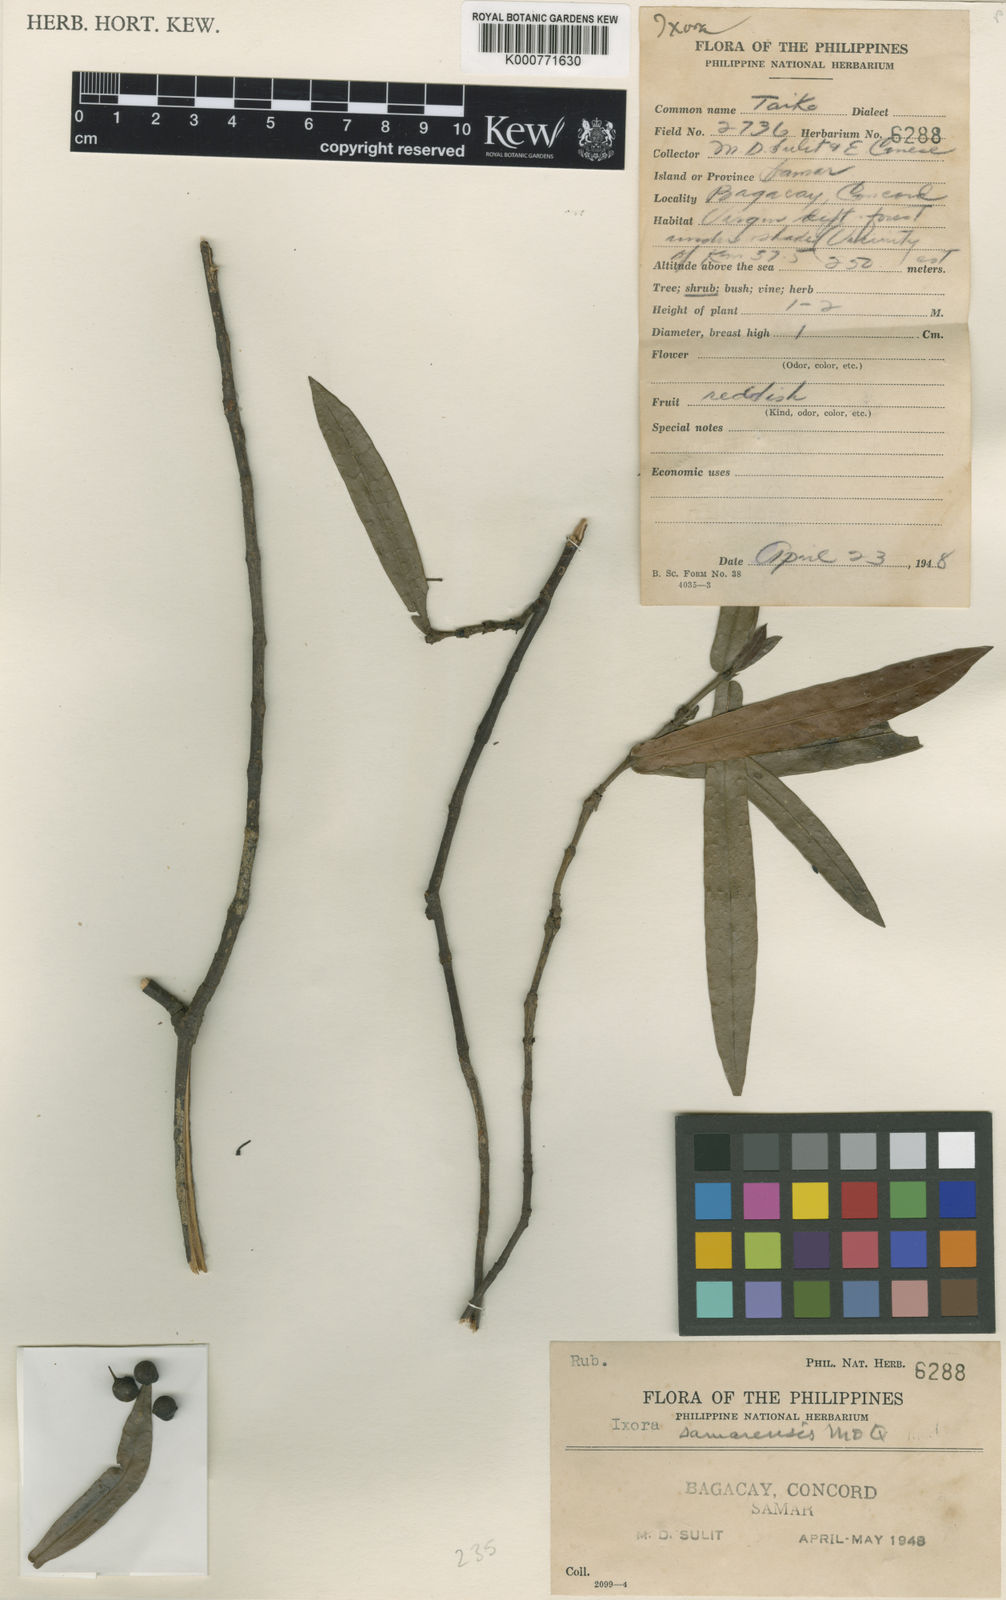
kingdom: Plantae
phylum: Tracheophyta
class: Magnoliopsida
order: Gentianales
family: Rubiaceae
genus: Ixora
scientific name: Ixora samarensis
